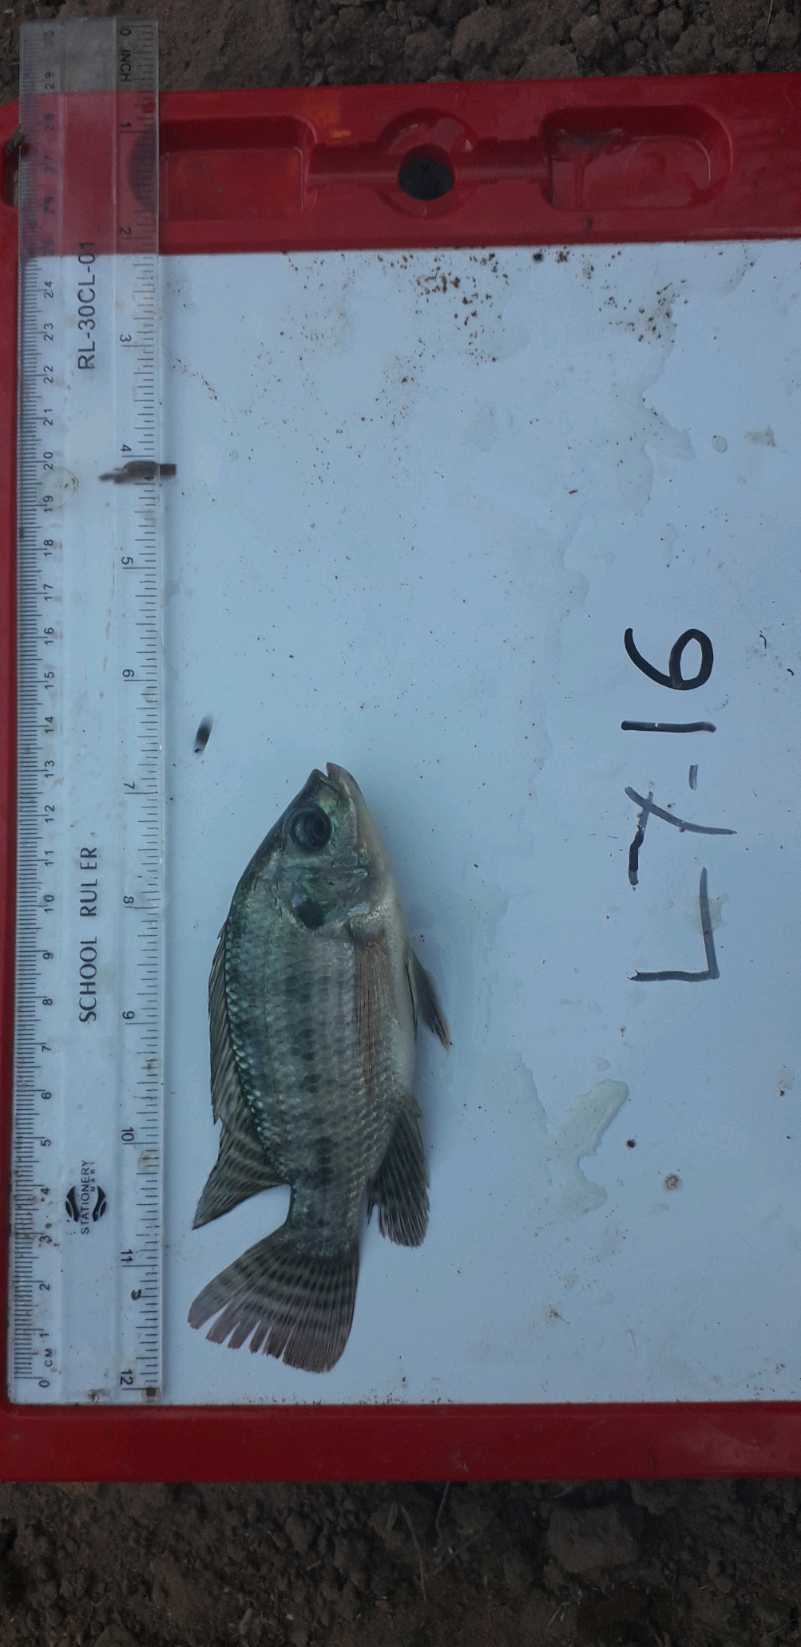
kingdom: Animalia
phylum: Chordata
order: Perciformes
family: Cichlidae
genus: Oreochromis
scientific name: Oreochromis niloticus
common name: Nile tilapia
